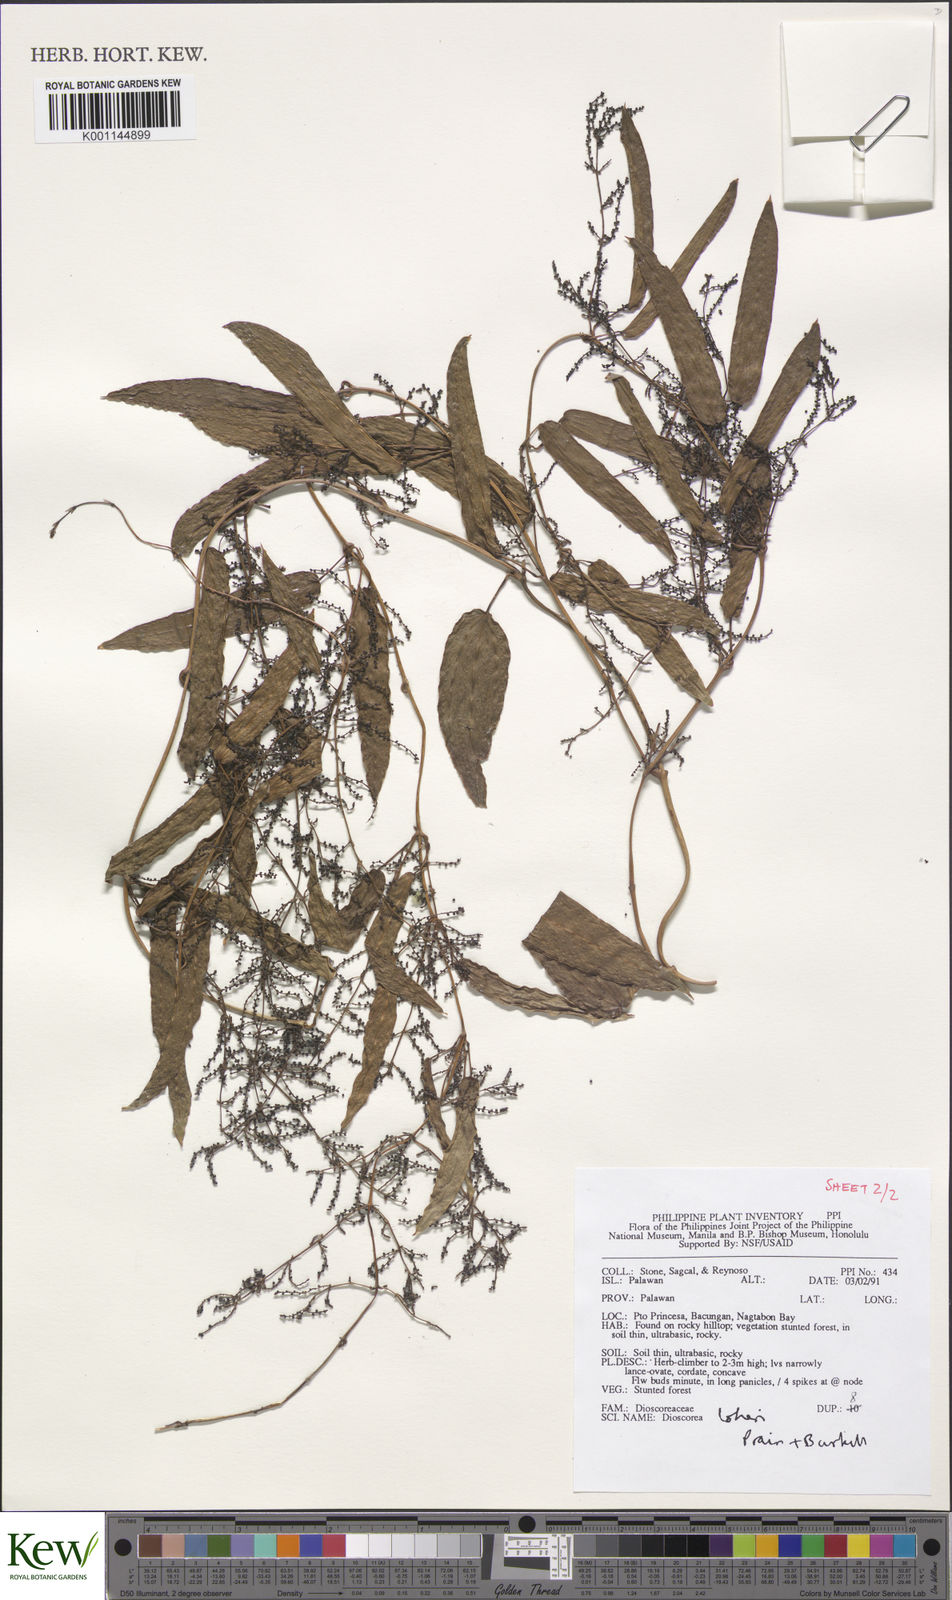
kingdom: Plantae
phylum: Tracheophyta
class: Liliopsida
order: Dioscoreales
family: Dioscoreaceae
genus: Dioscorea
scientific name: Dioscorea loheri
